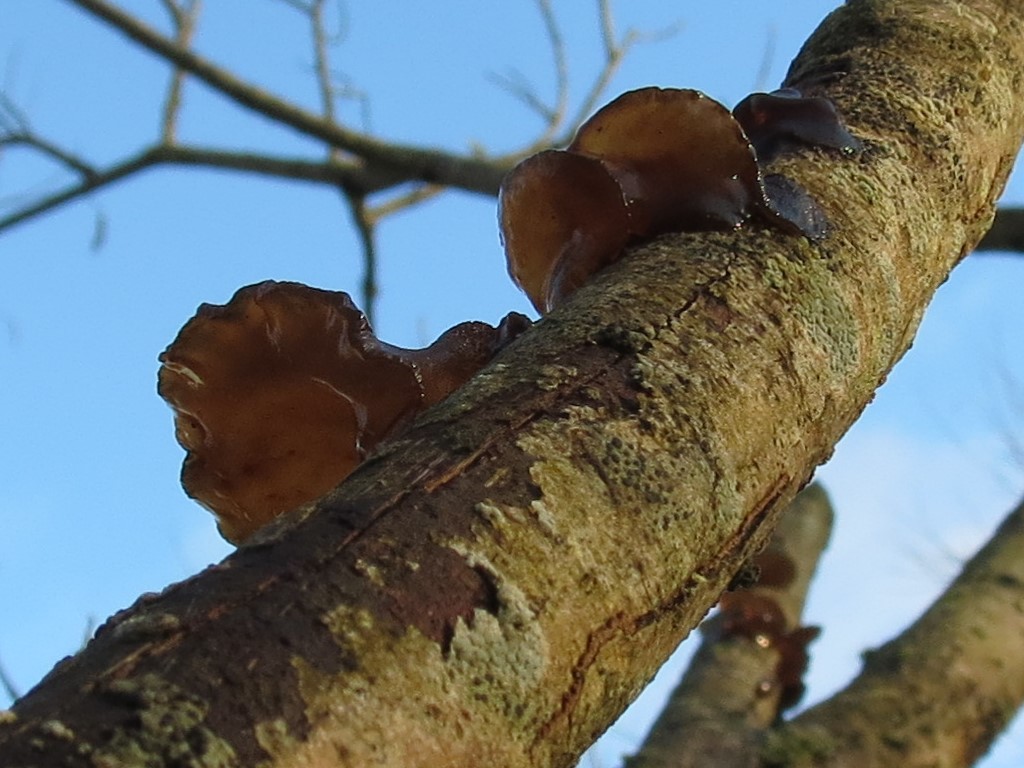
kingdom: Fungi
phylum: Basidiomycota
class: Agaricomycetes
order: Auriculariales
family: Auriculariaceae
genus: Exidia
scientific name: Exidia recisa
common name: pile-bævretop
